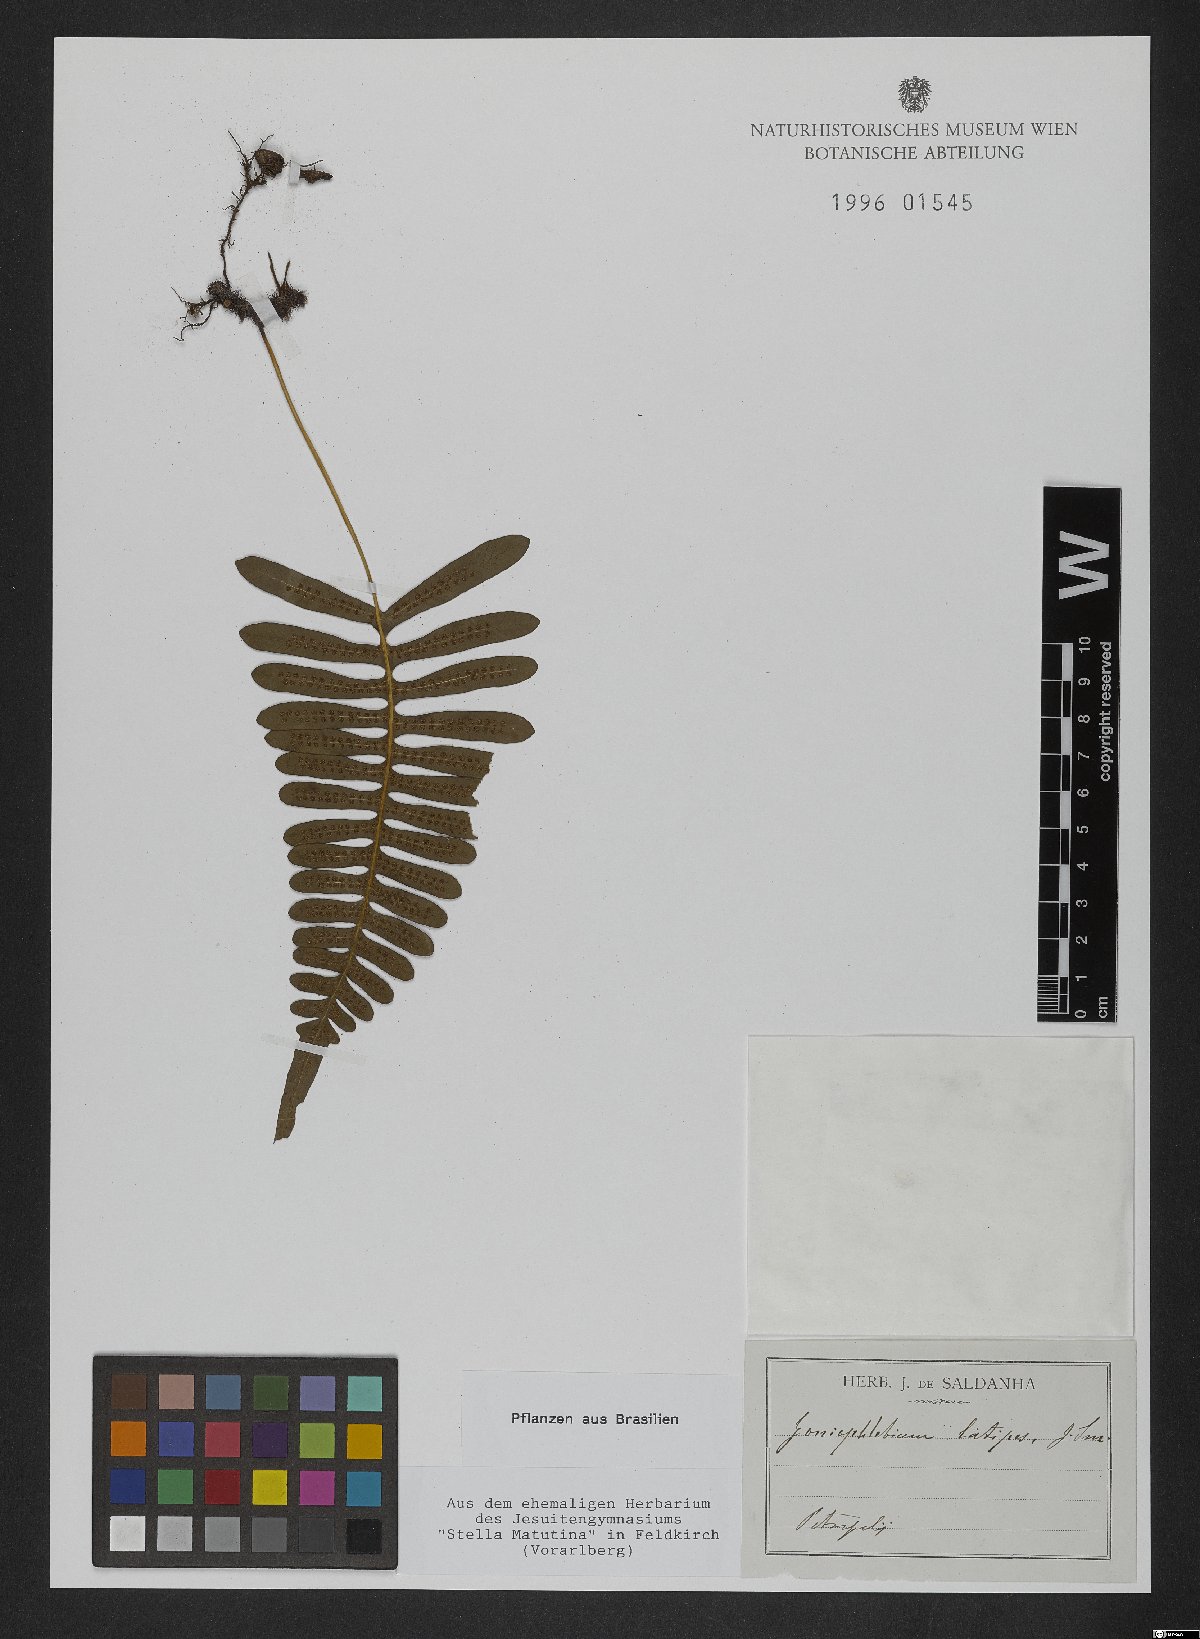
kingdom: Plantae
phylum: Tracheophyta
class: Polypodiopsida
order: Polypodiales
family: Polypodiaceae
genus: Goniophlebium
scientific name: Goniophlebium
